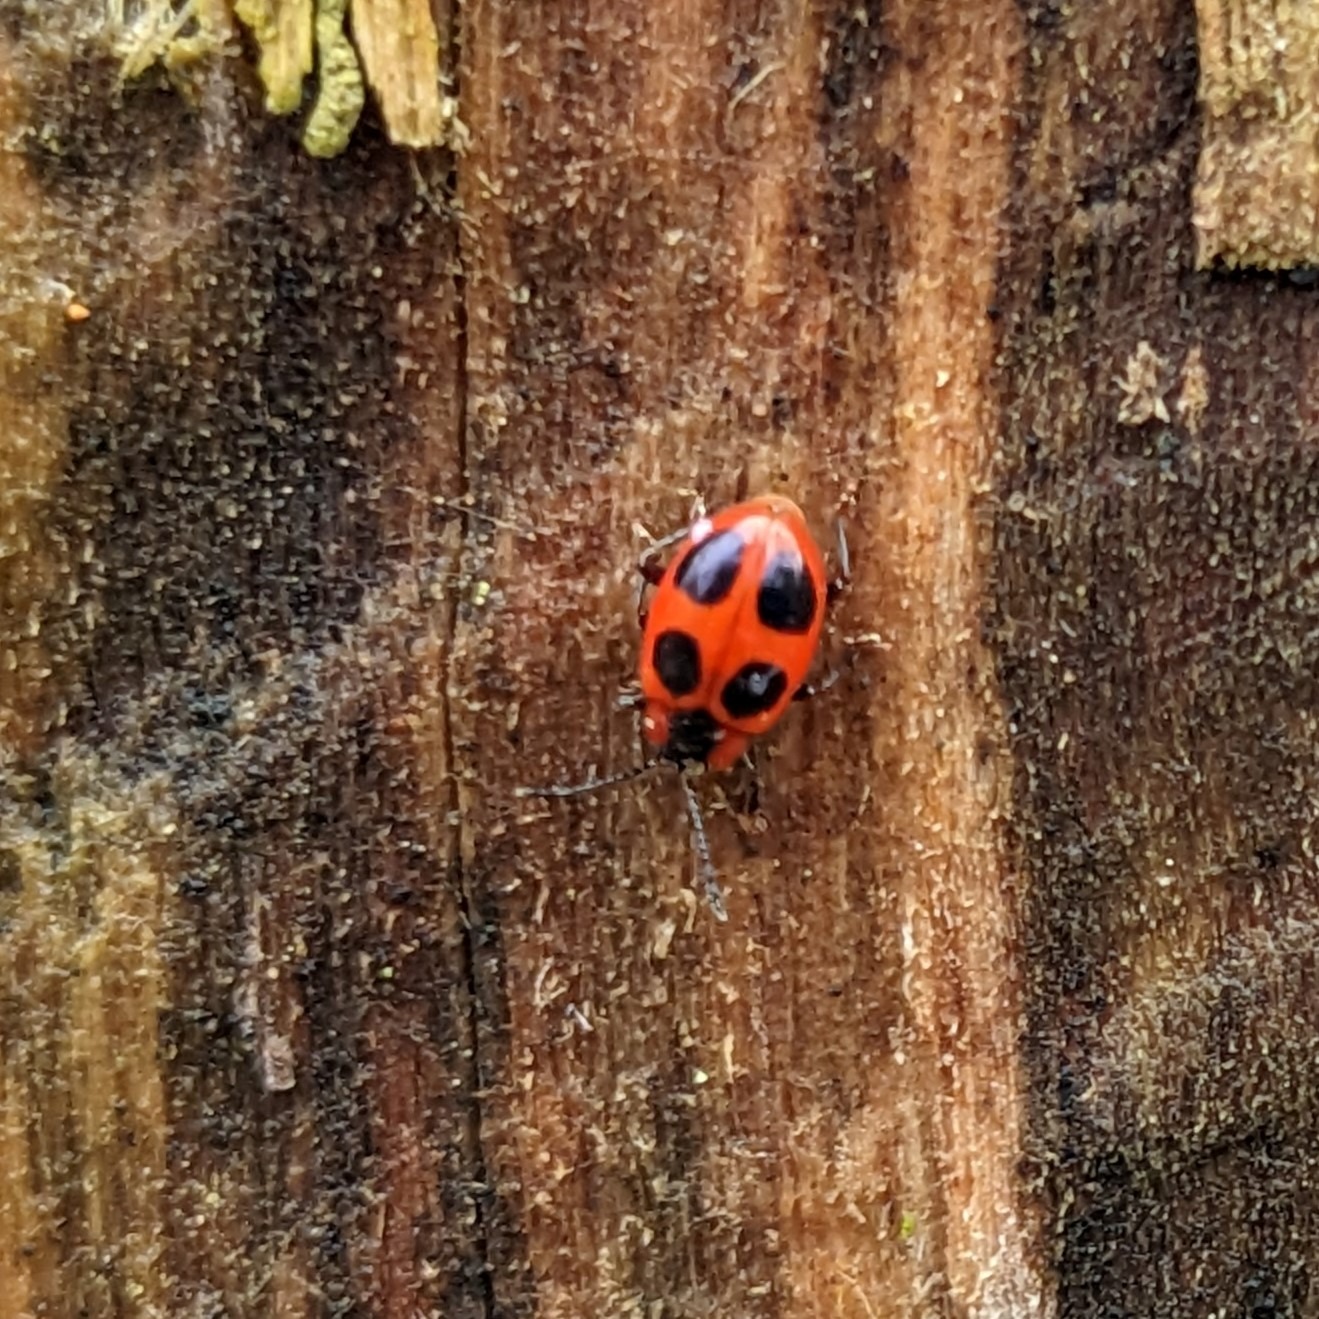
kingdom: Animalia
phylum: Arthropoda
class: Insecta
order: Coleoptera
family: Endomychidae
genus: Endomychus
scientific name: Endomychus coccineus
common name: Skarlagensvampehøne
